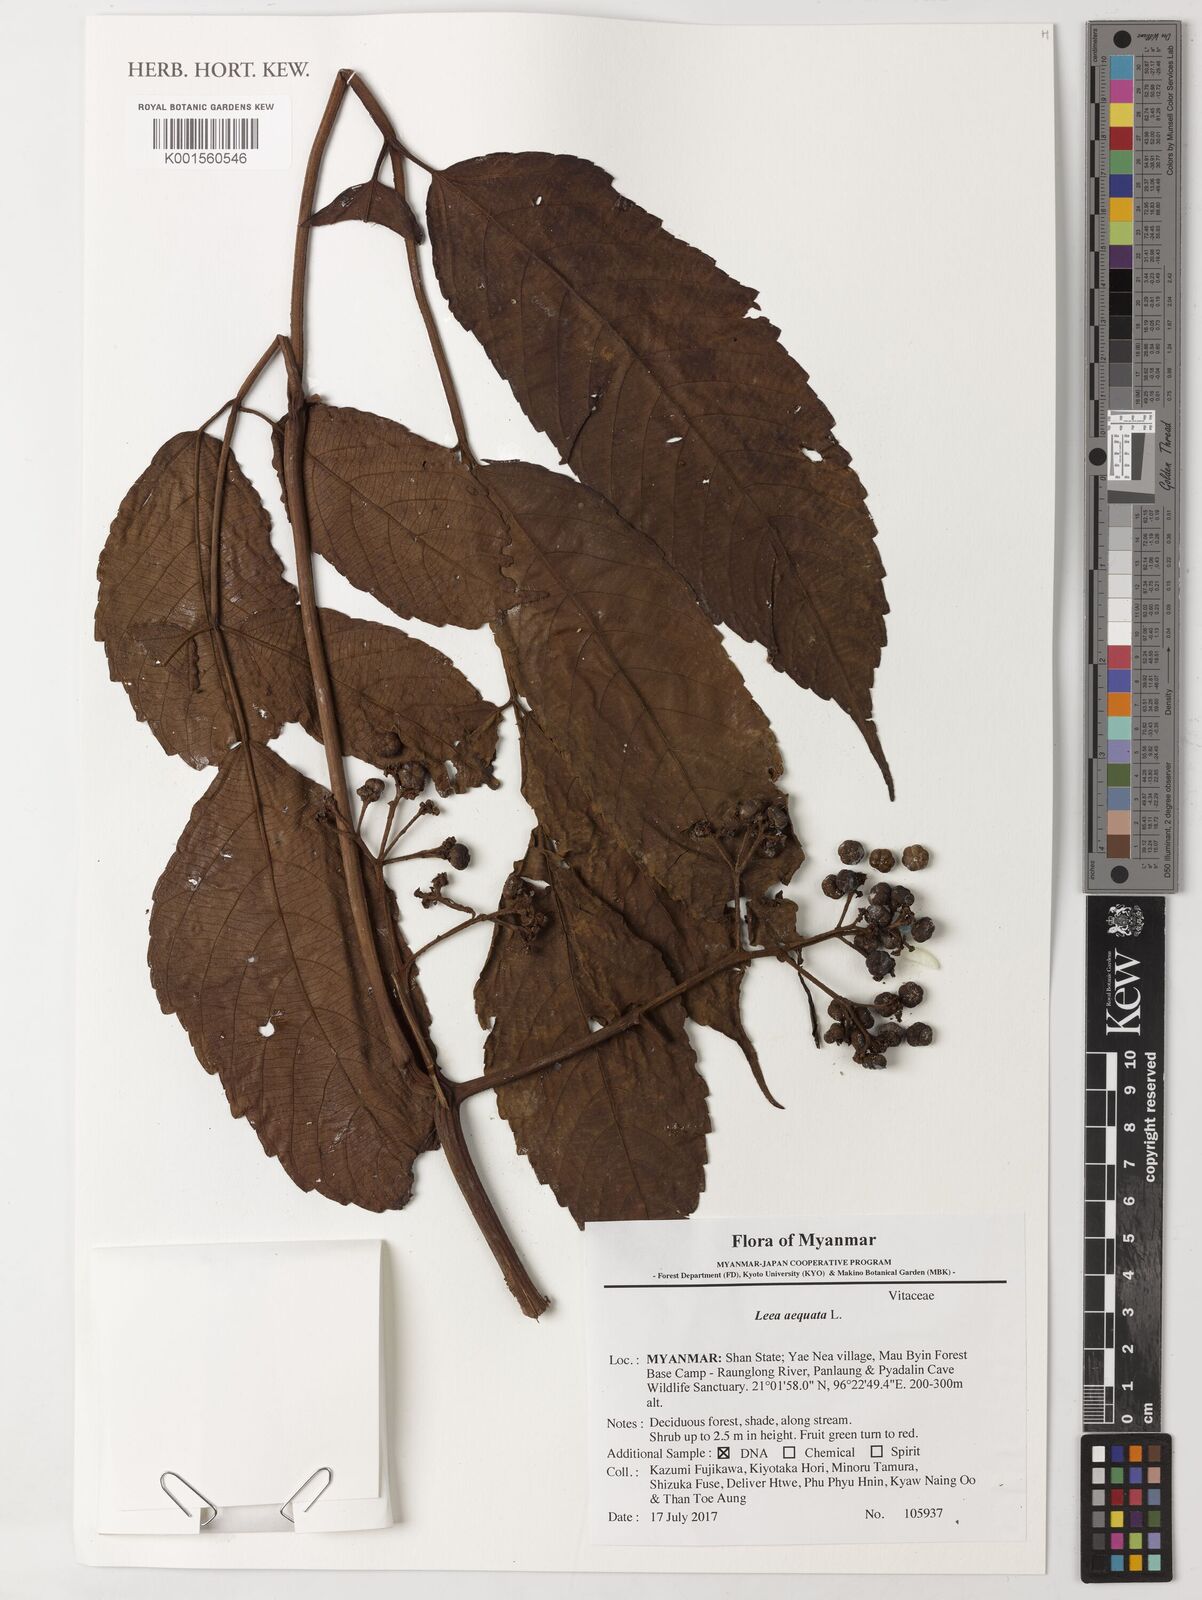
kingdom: Plantae
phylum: Tracheophyta
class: Magnoliopsida
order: Vitales
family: Vitaceae
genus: Leea
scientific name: Leea aequata
